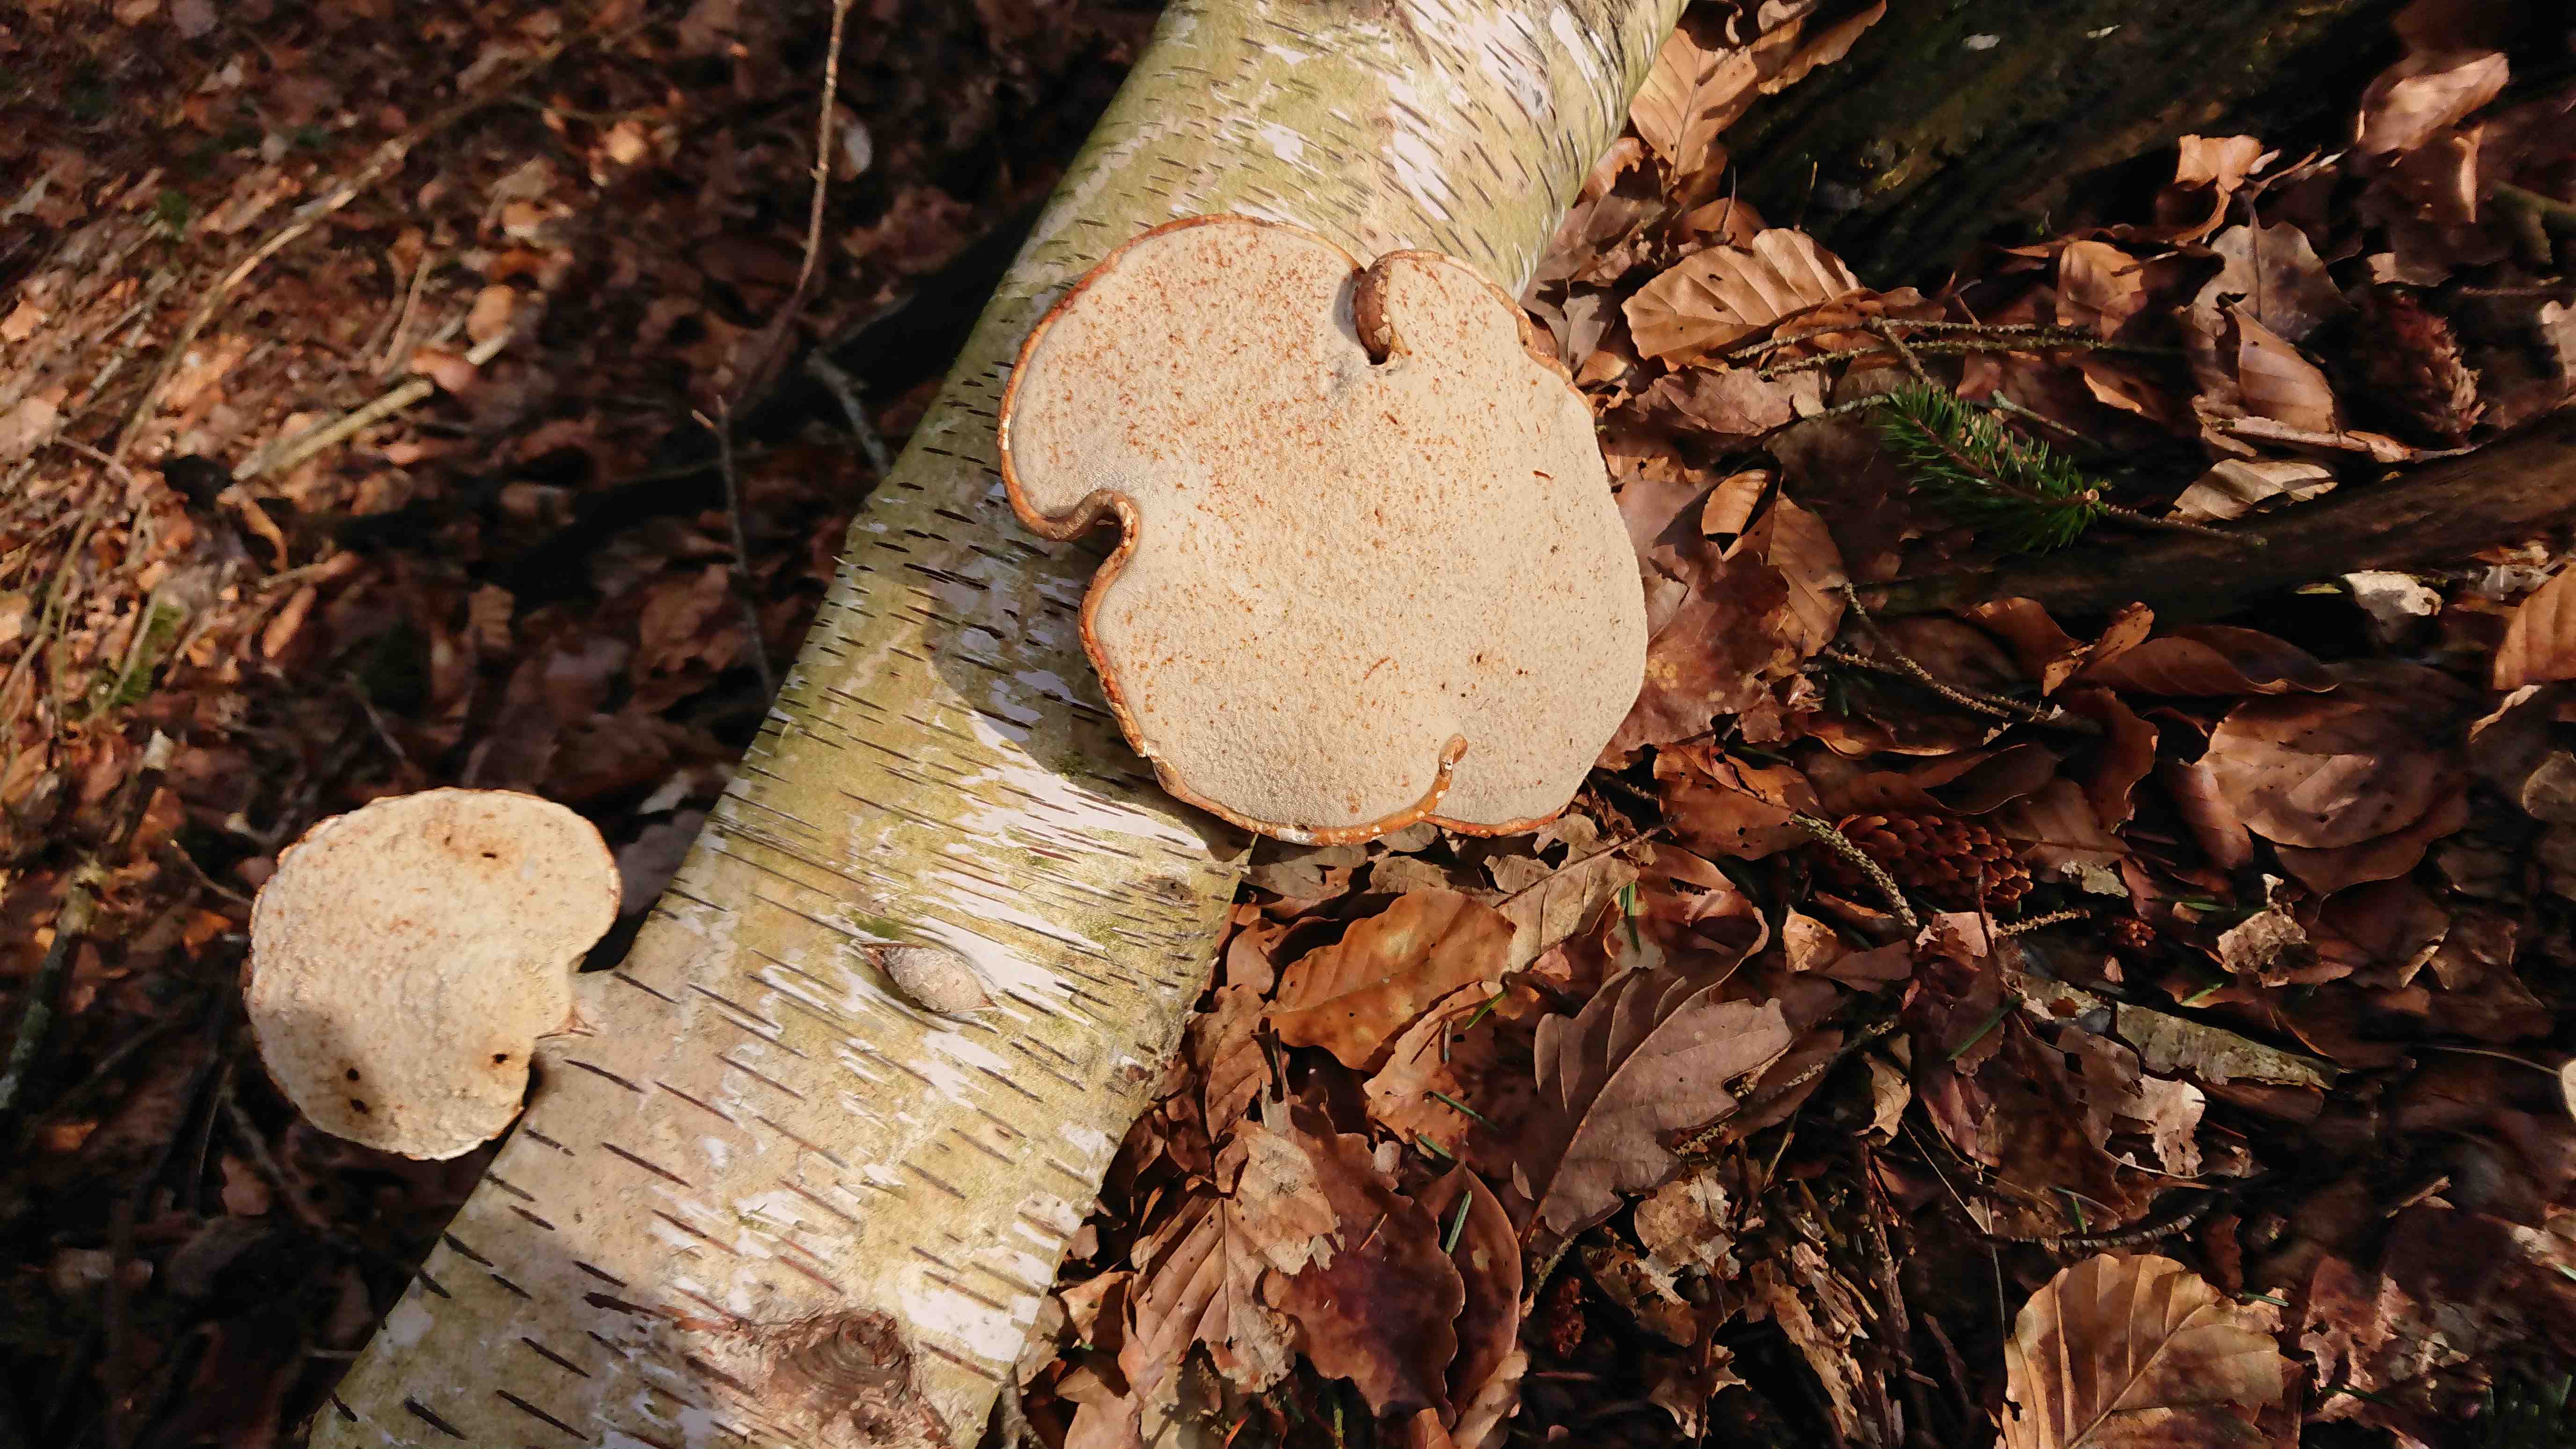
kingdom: Fungi
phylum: Basidiomycota
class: Agaricomycetes
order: Polyporales
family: Fomitopsidaceae
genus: Fomitopsis
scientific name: Fomitopsis betulina
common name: birkeporesvamp
